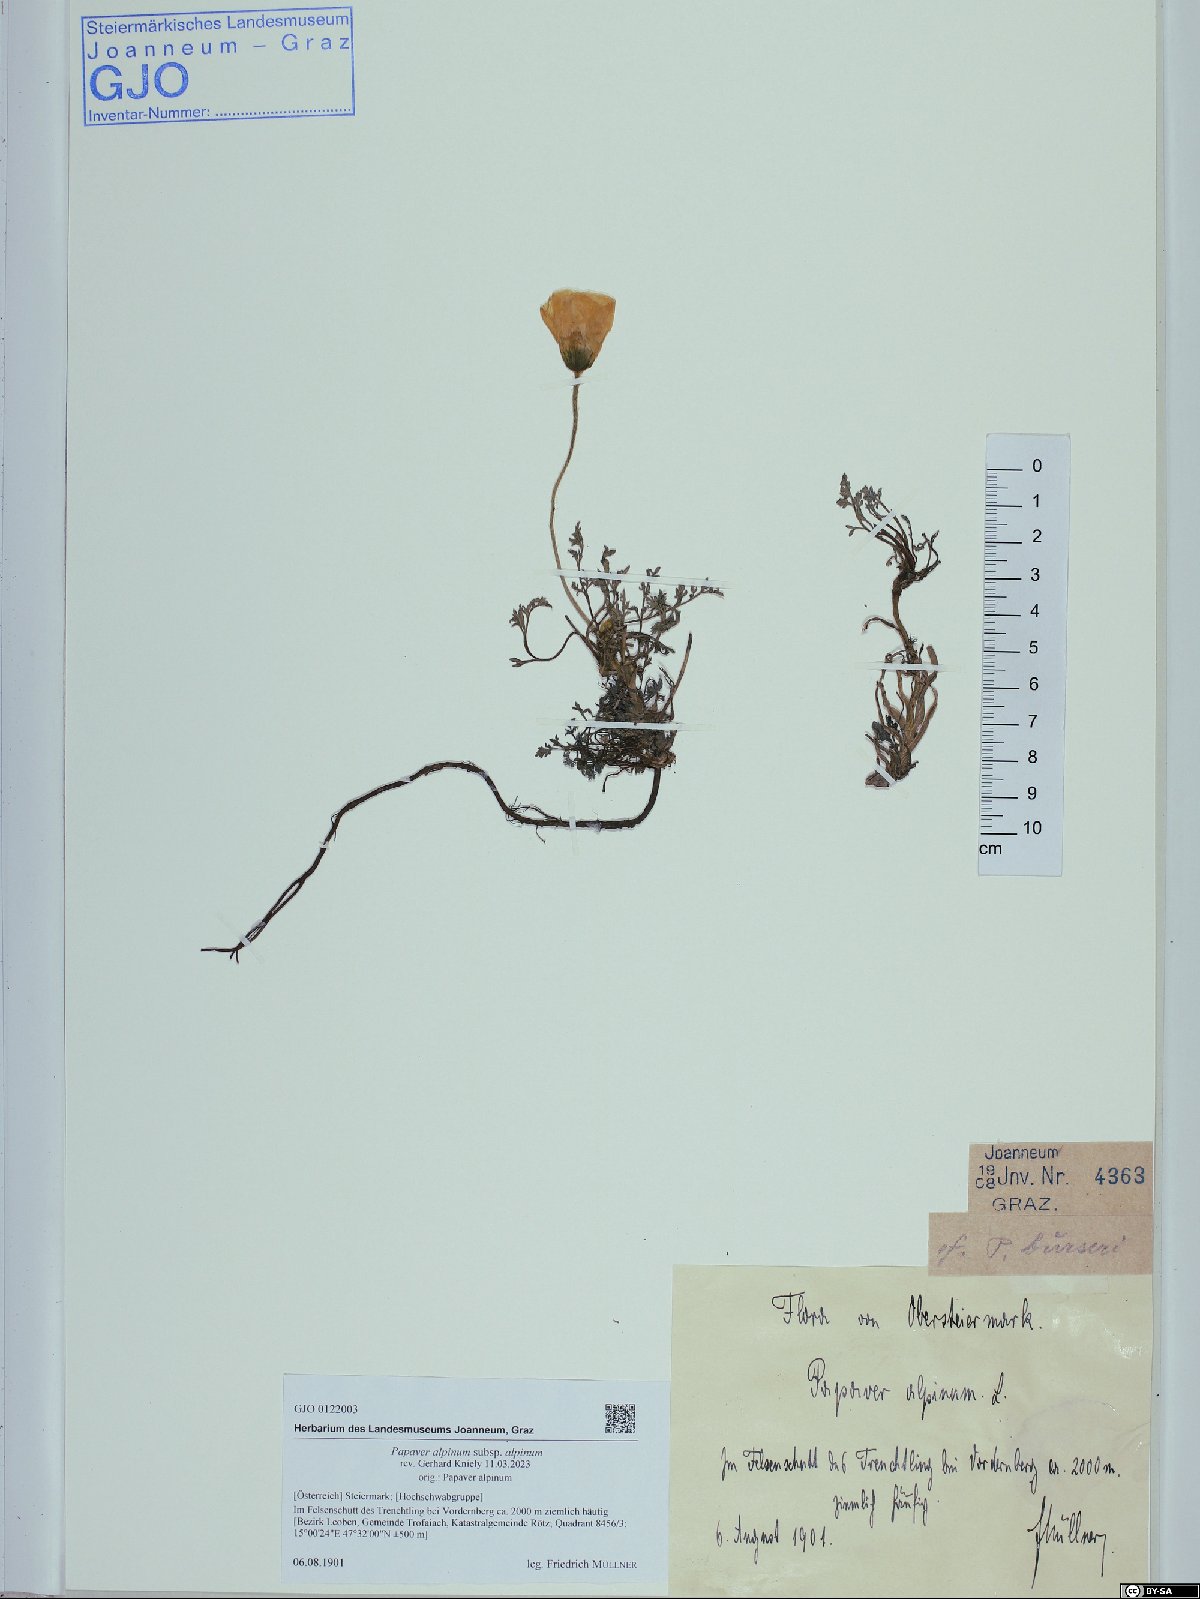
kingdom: Plantae
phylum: Tracheophyta
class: Magnoliopsida
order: Ranunculales
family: Papaveraceae
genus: Papaver
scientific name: Papaver alpinum
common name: Austrian poppy
